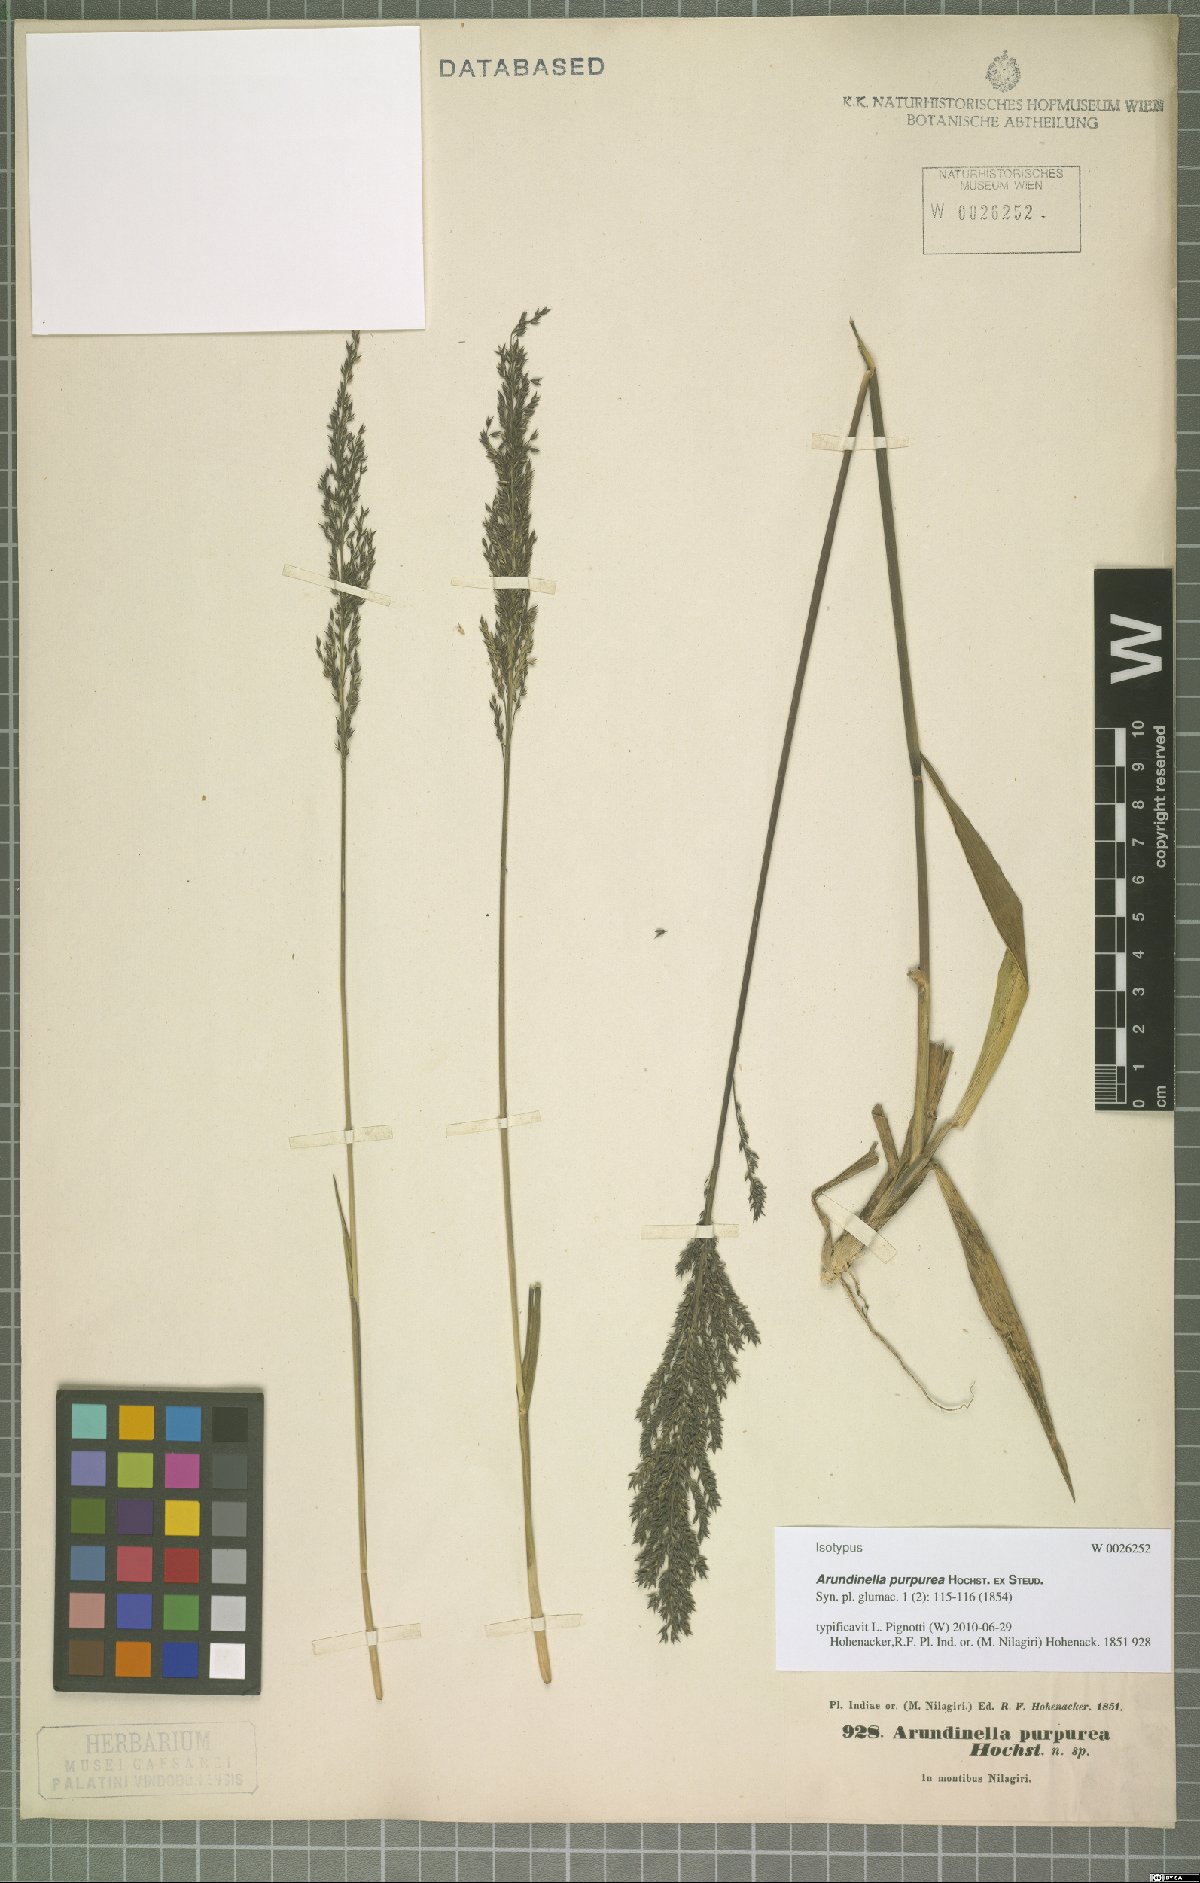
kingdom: Plantae
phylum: Tracheophyta
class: Liliopsida
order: Poales
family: Poaceae
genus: Arundinella
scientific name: Arundinella fuscata
